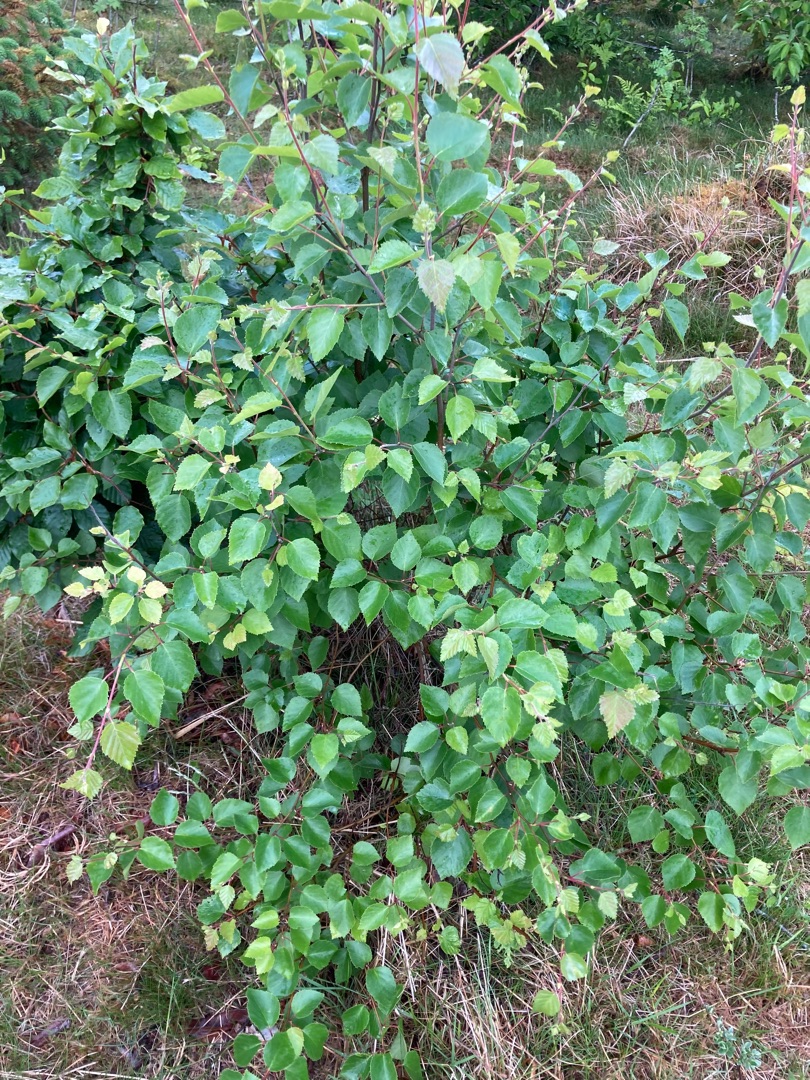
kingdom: Plantae
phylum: Tracheophyta
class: Magnoliopsida
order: Fagales
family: Betulaceae
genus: Betula
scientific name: Betula
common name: Birkeslægten
